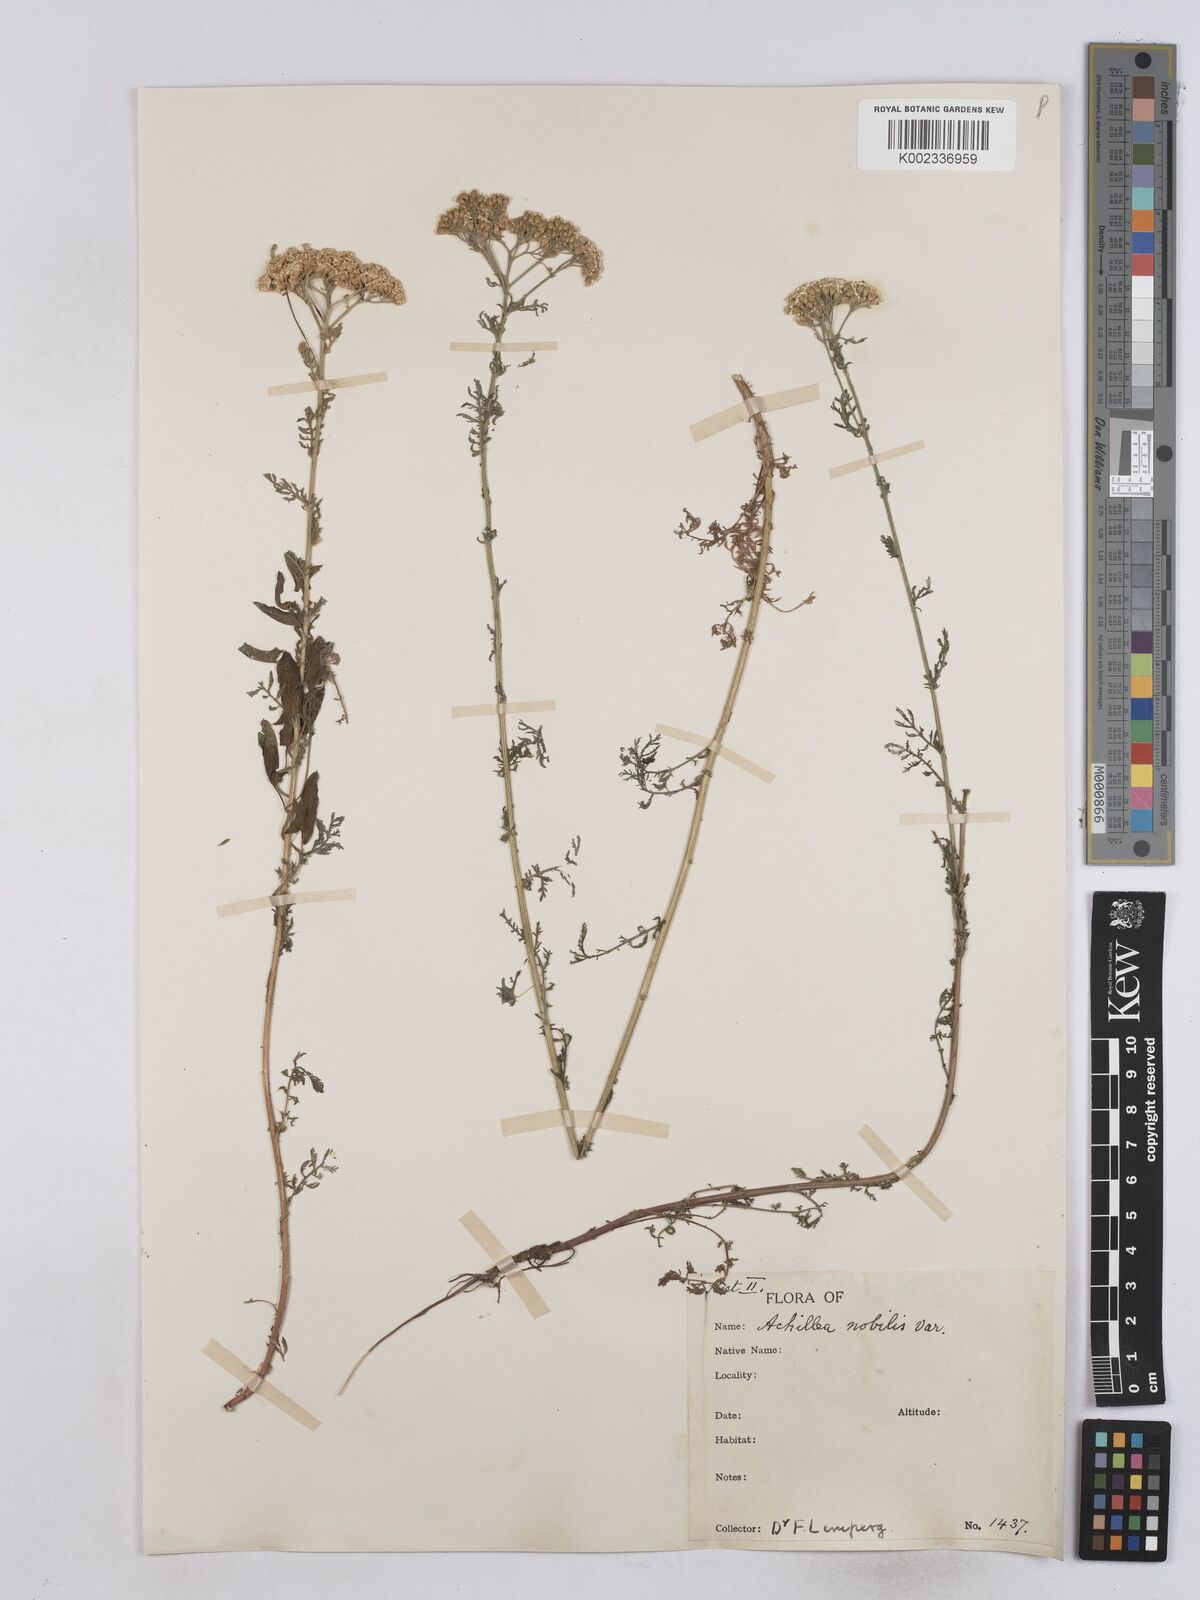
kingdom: Plantae
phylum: Tracheophyta
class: Magnoliopsida
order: Asterales
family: Asteraceae
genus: Achillea
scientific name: Achillea nobilis
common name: Noble yarrow
